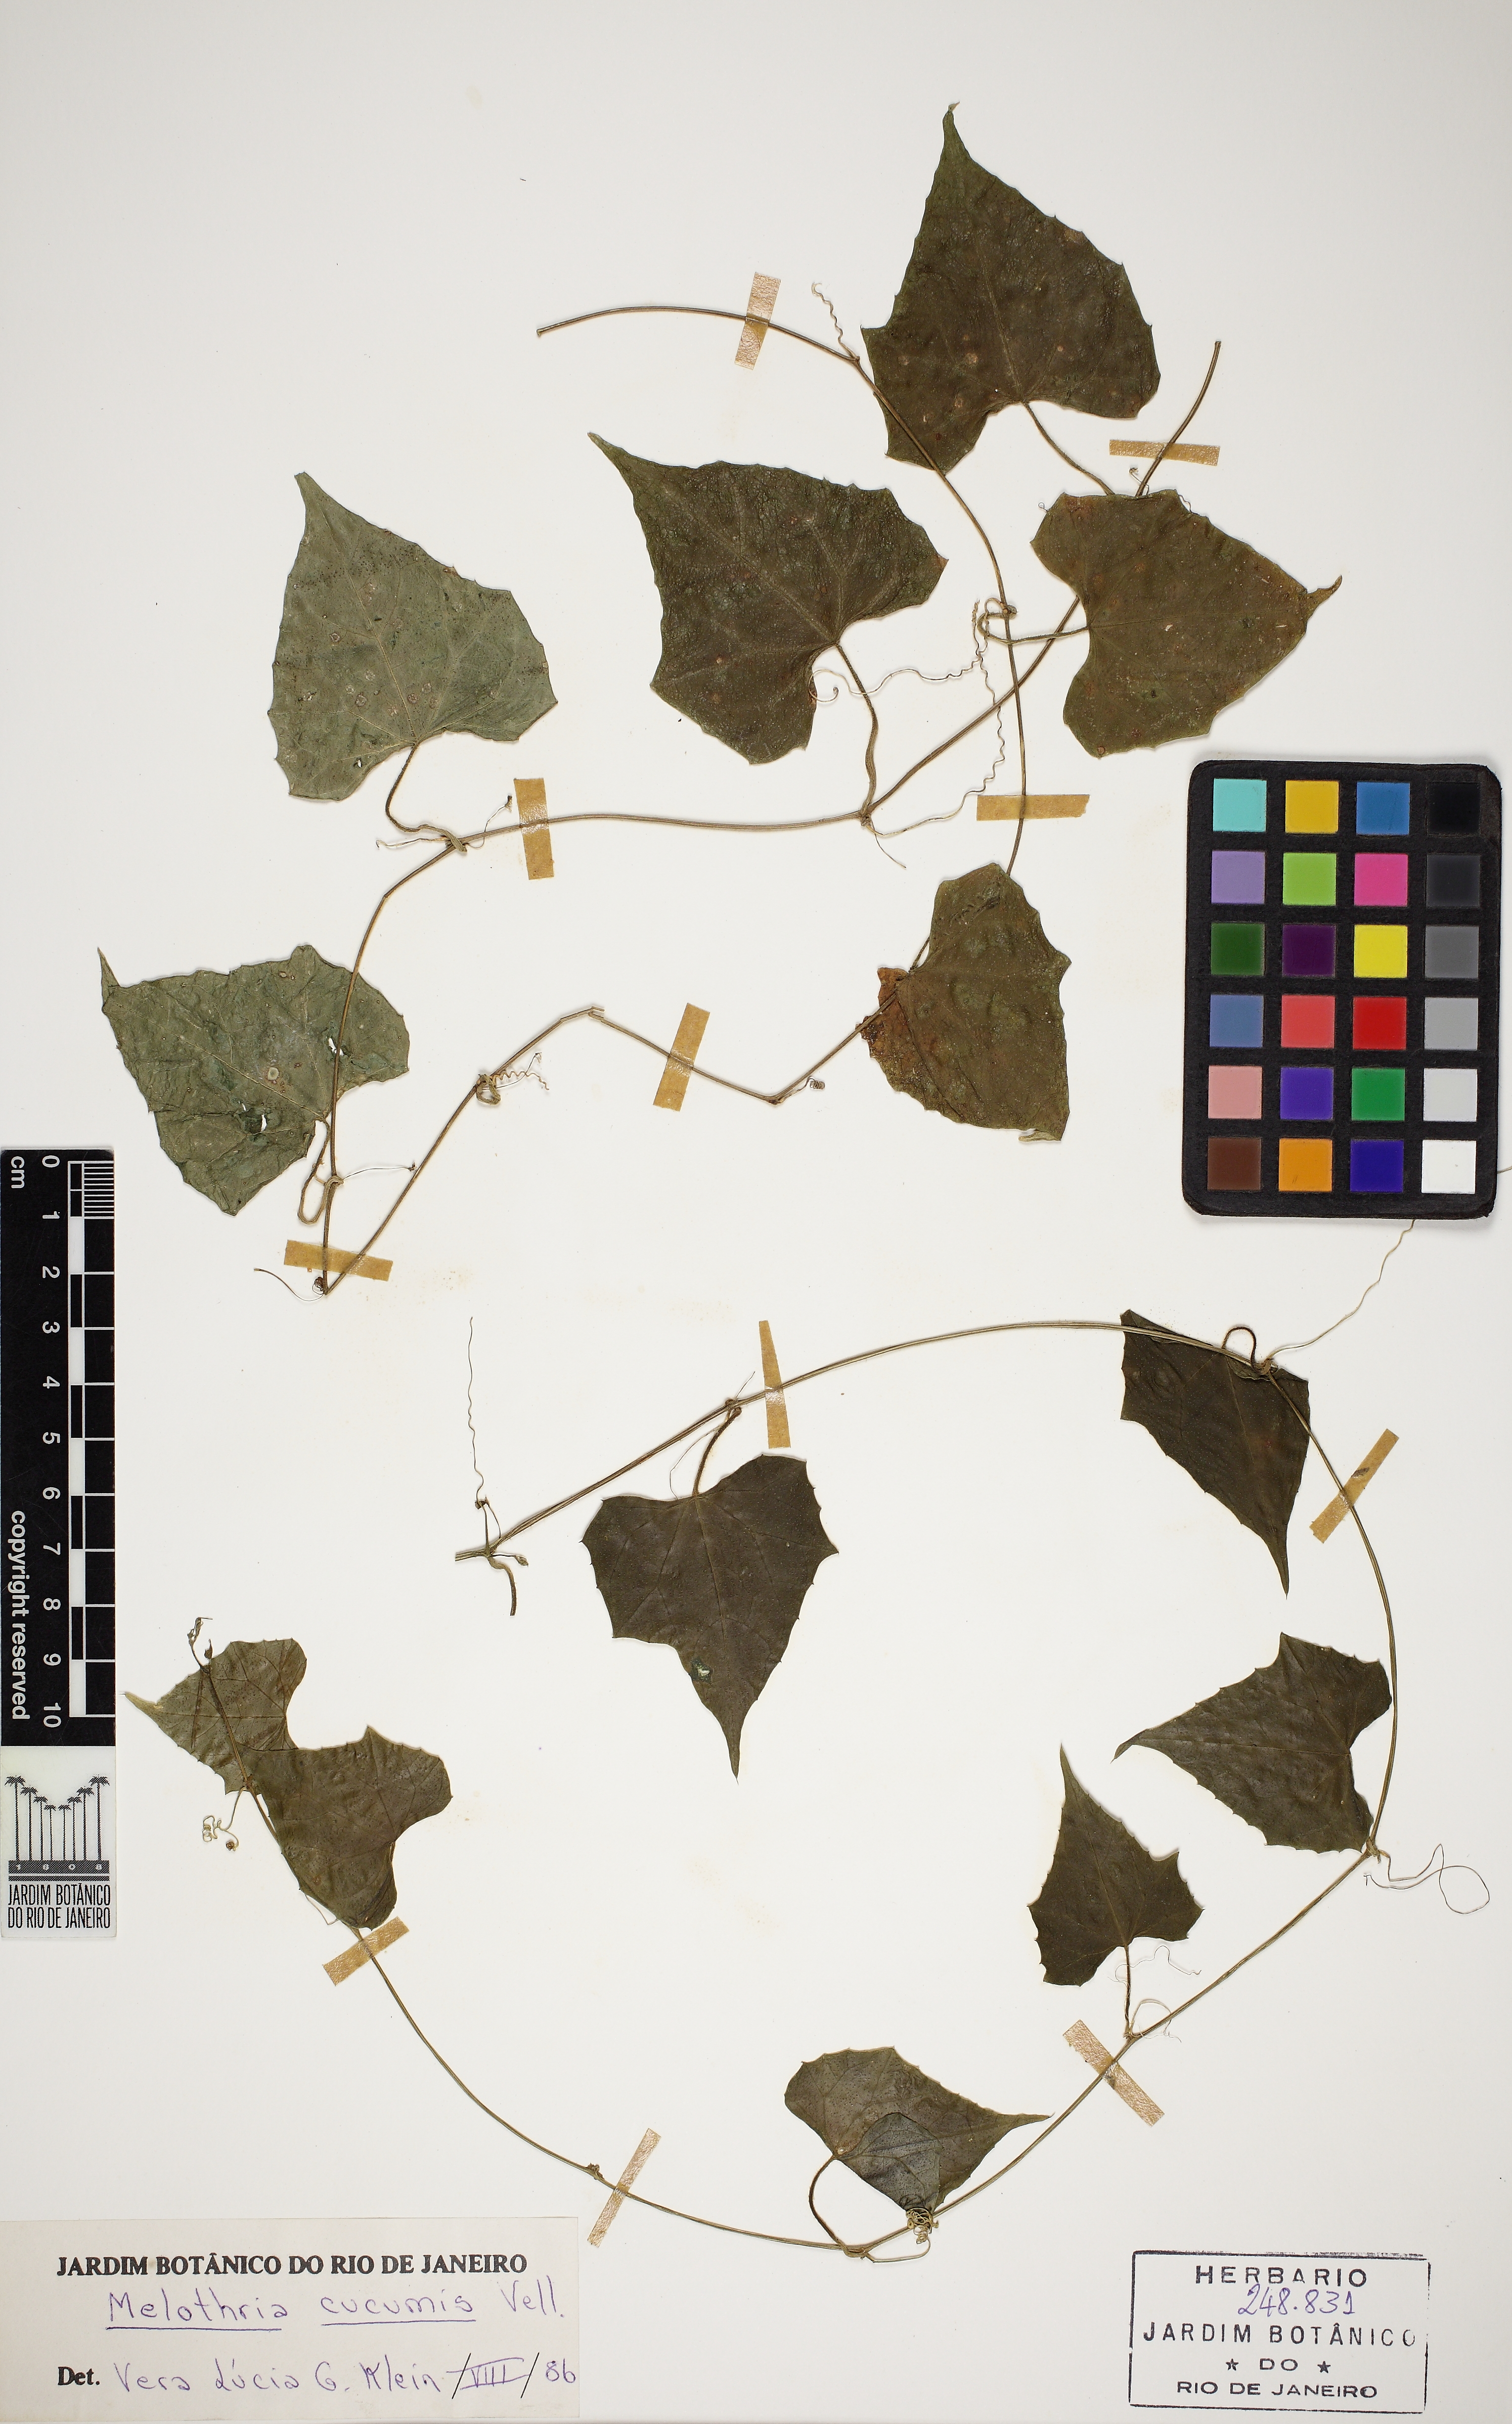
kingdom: Plantae
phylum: Tracheophyta
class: Magnoliopsida
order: Cucurbitales
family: Cucurbitaceae
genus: Melothria
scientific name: Melothria cucumis
